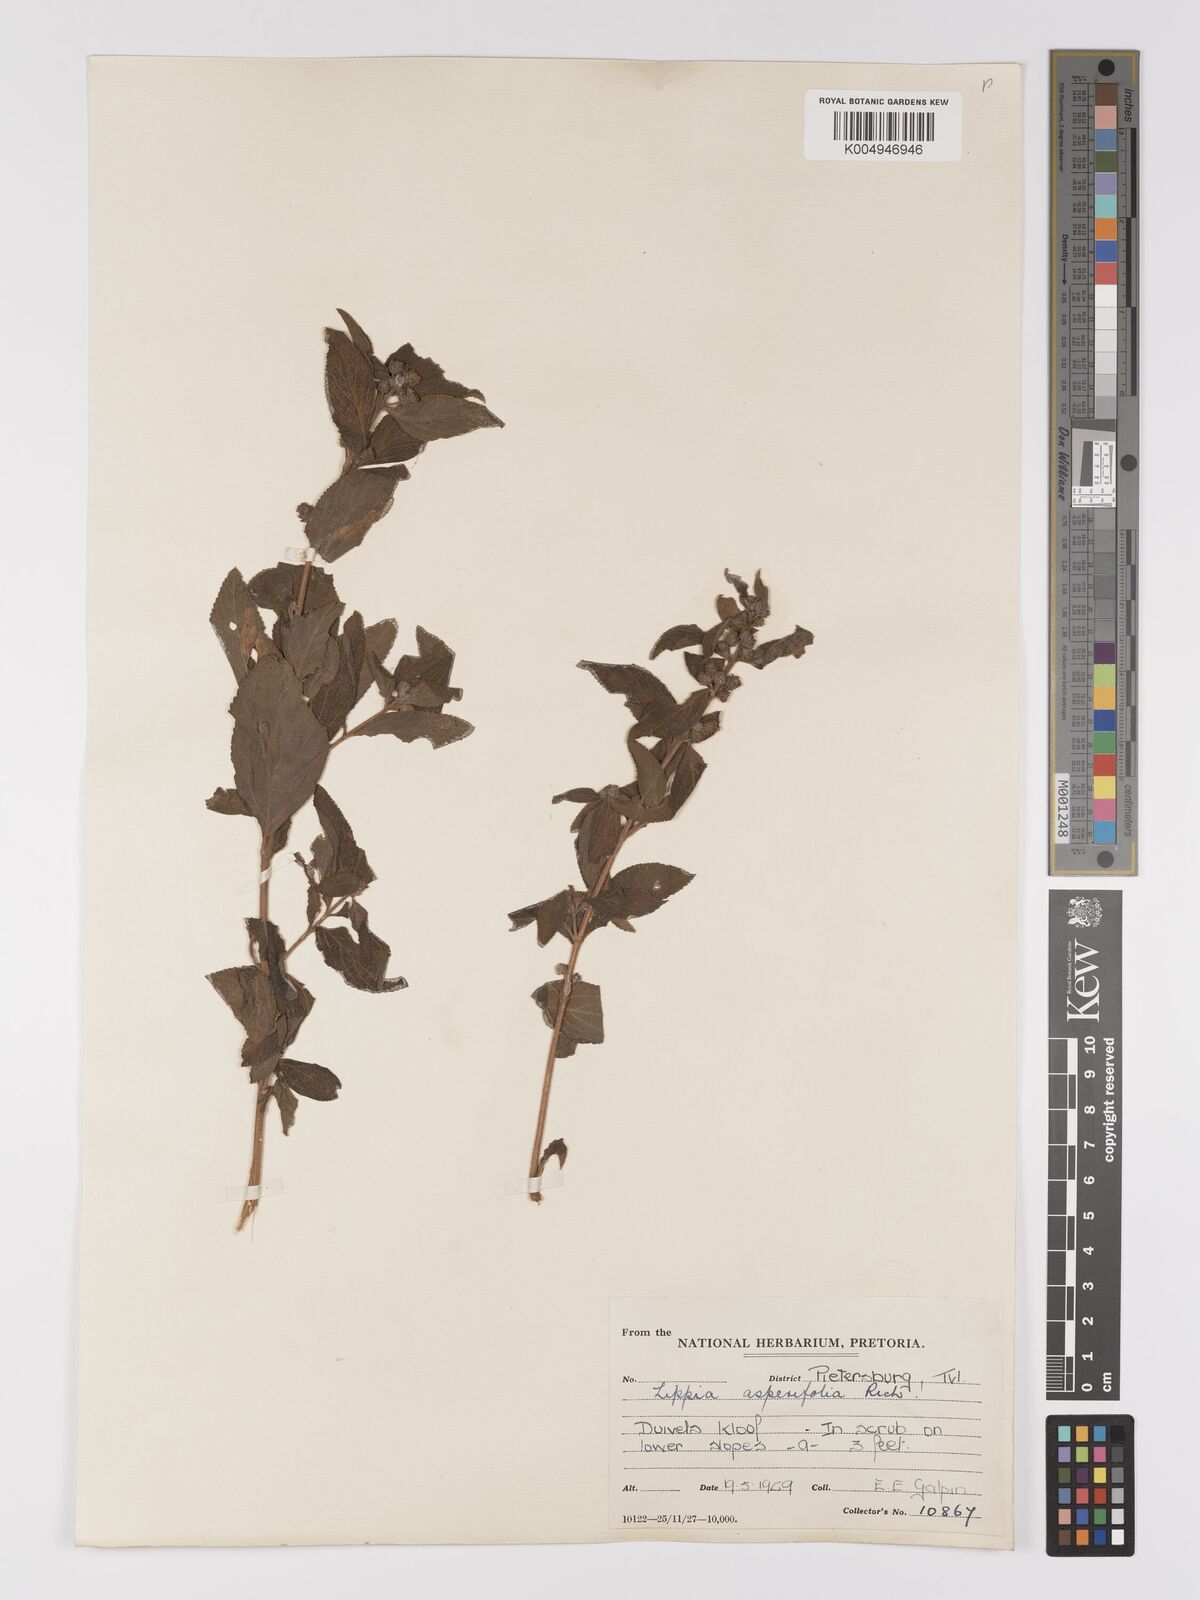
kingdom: Plantae
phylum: Tracheophyta
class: Magnoliopsida
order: Lamiales
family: Verbenaceae
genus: Lippia
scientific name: Lippia
